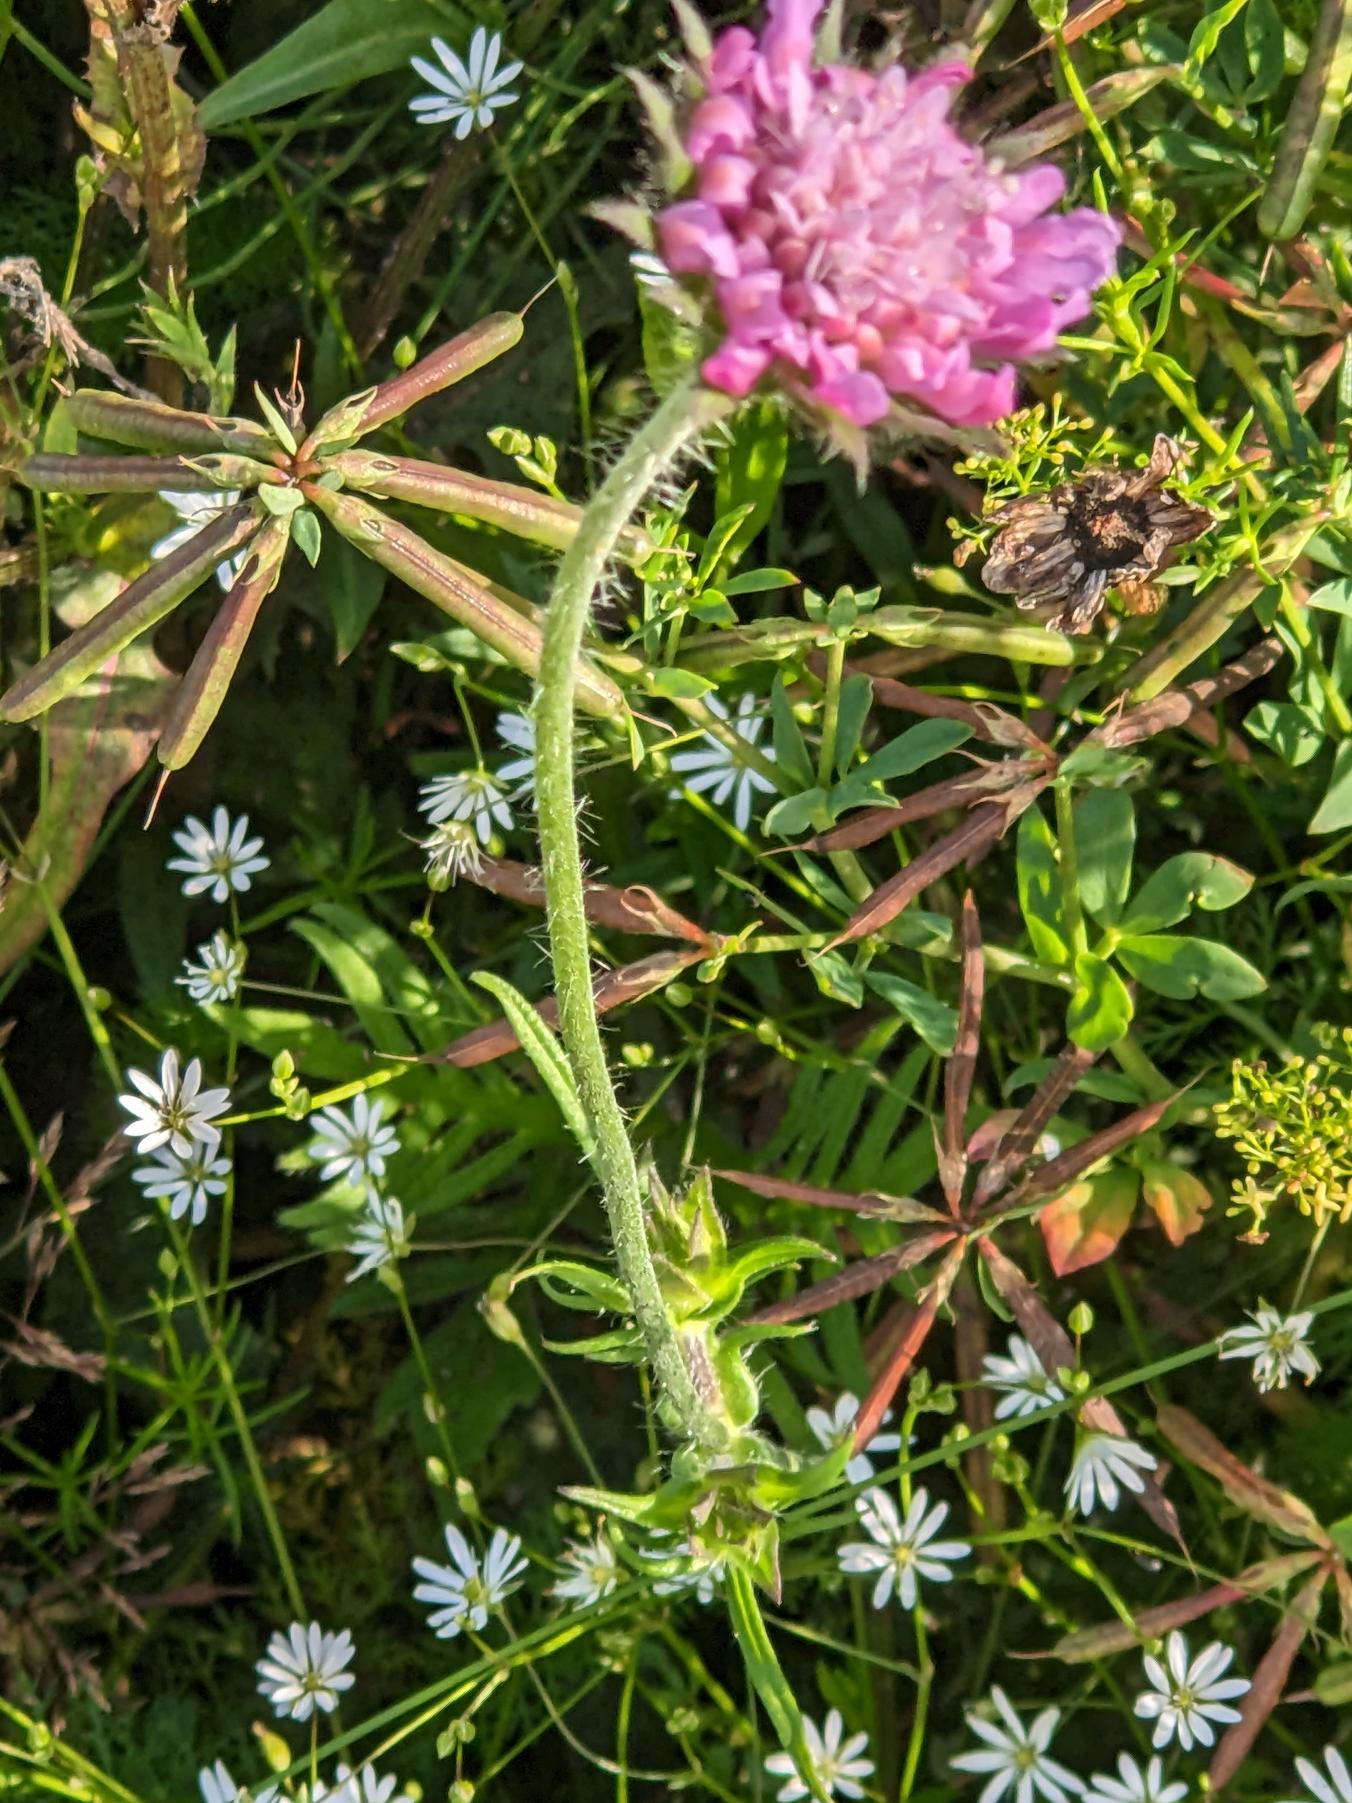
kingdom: Plantae
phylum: Tracheophyta
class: Magnoliopsida
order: Dipsacales
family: Caprifoliaceae
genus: Knautia
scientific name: Knautia arvensis
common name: Blåhat
